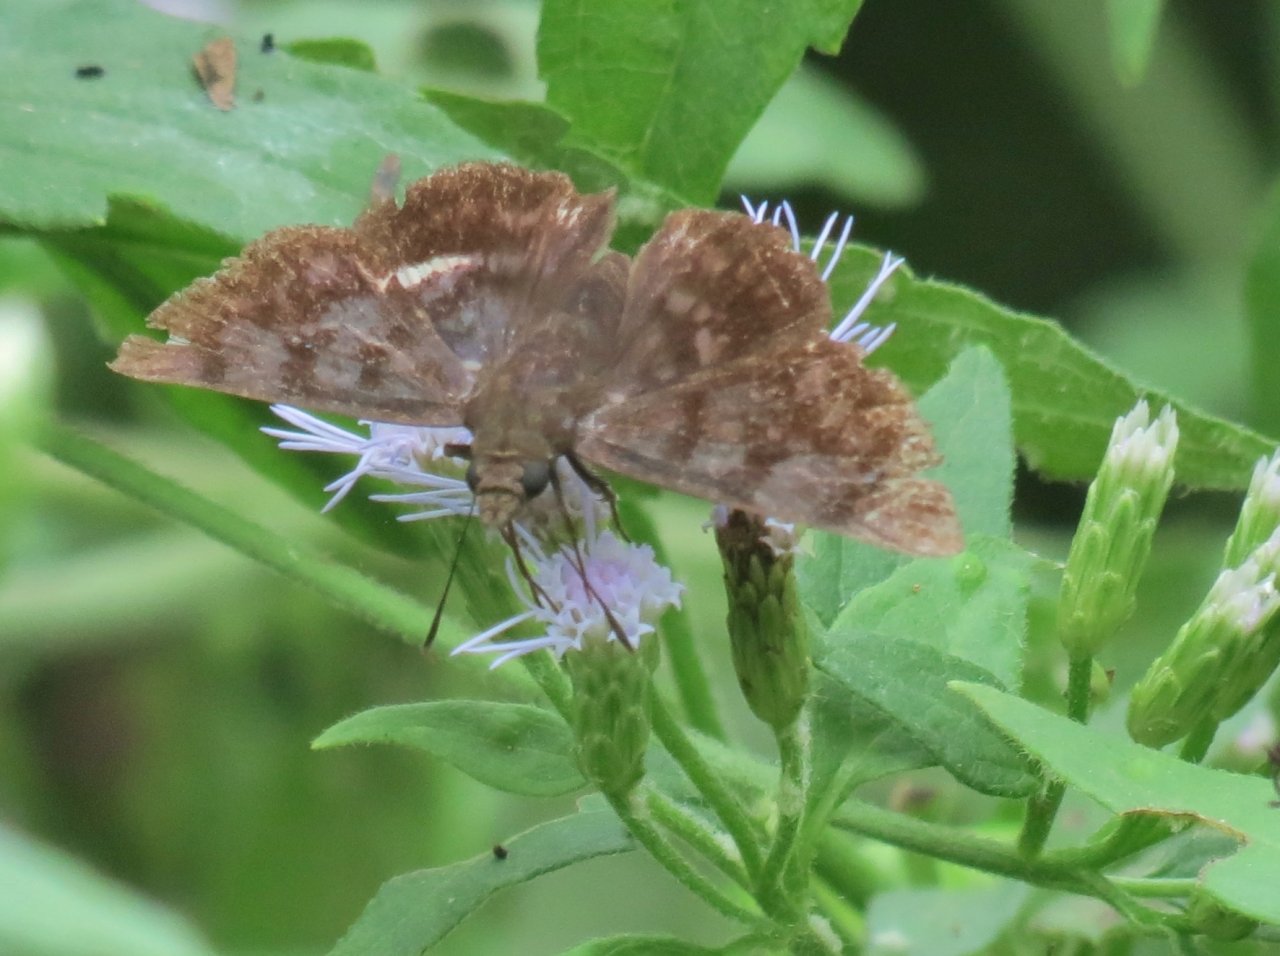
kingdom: Animalia
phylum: Arthropoda
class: Insecta
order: Lepidoptera
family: Hesperiidae
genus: Pellicia
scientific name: Pellicia costimacula
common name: Glazed Pellicia
